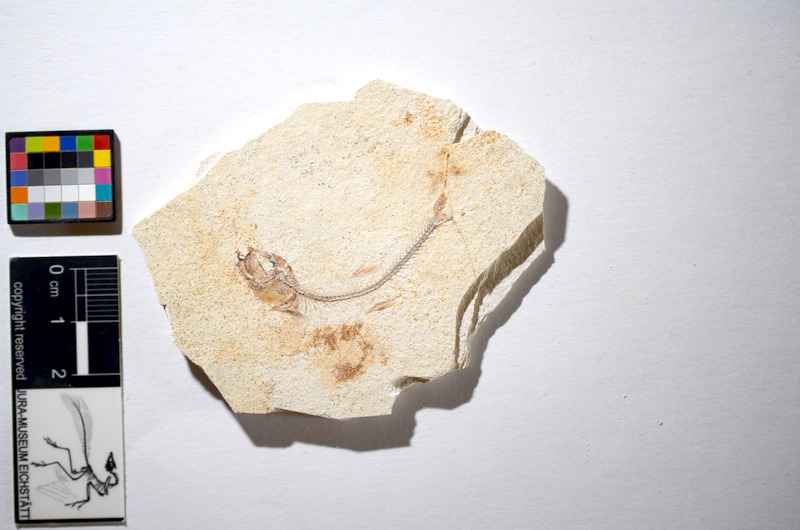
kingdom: Animalia
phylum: Chordata
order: Salmoniformes
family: Orthogonikleithridae
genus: Orthogonikleithrus
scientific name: Orthogonikleithrus hoelli
